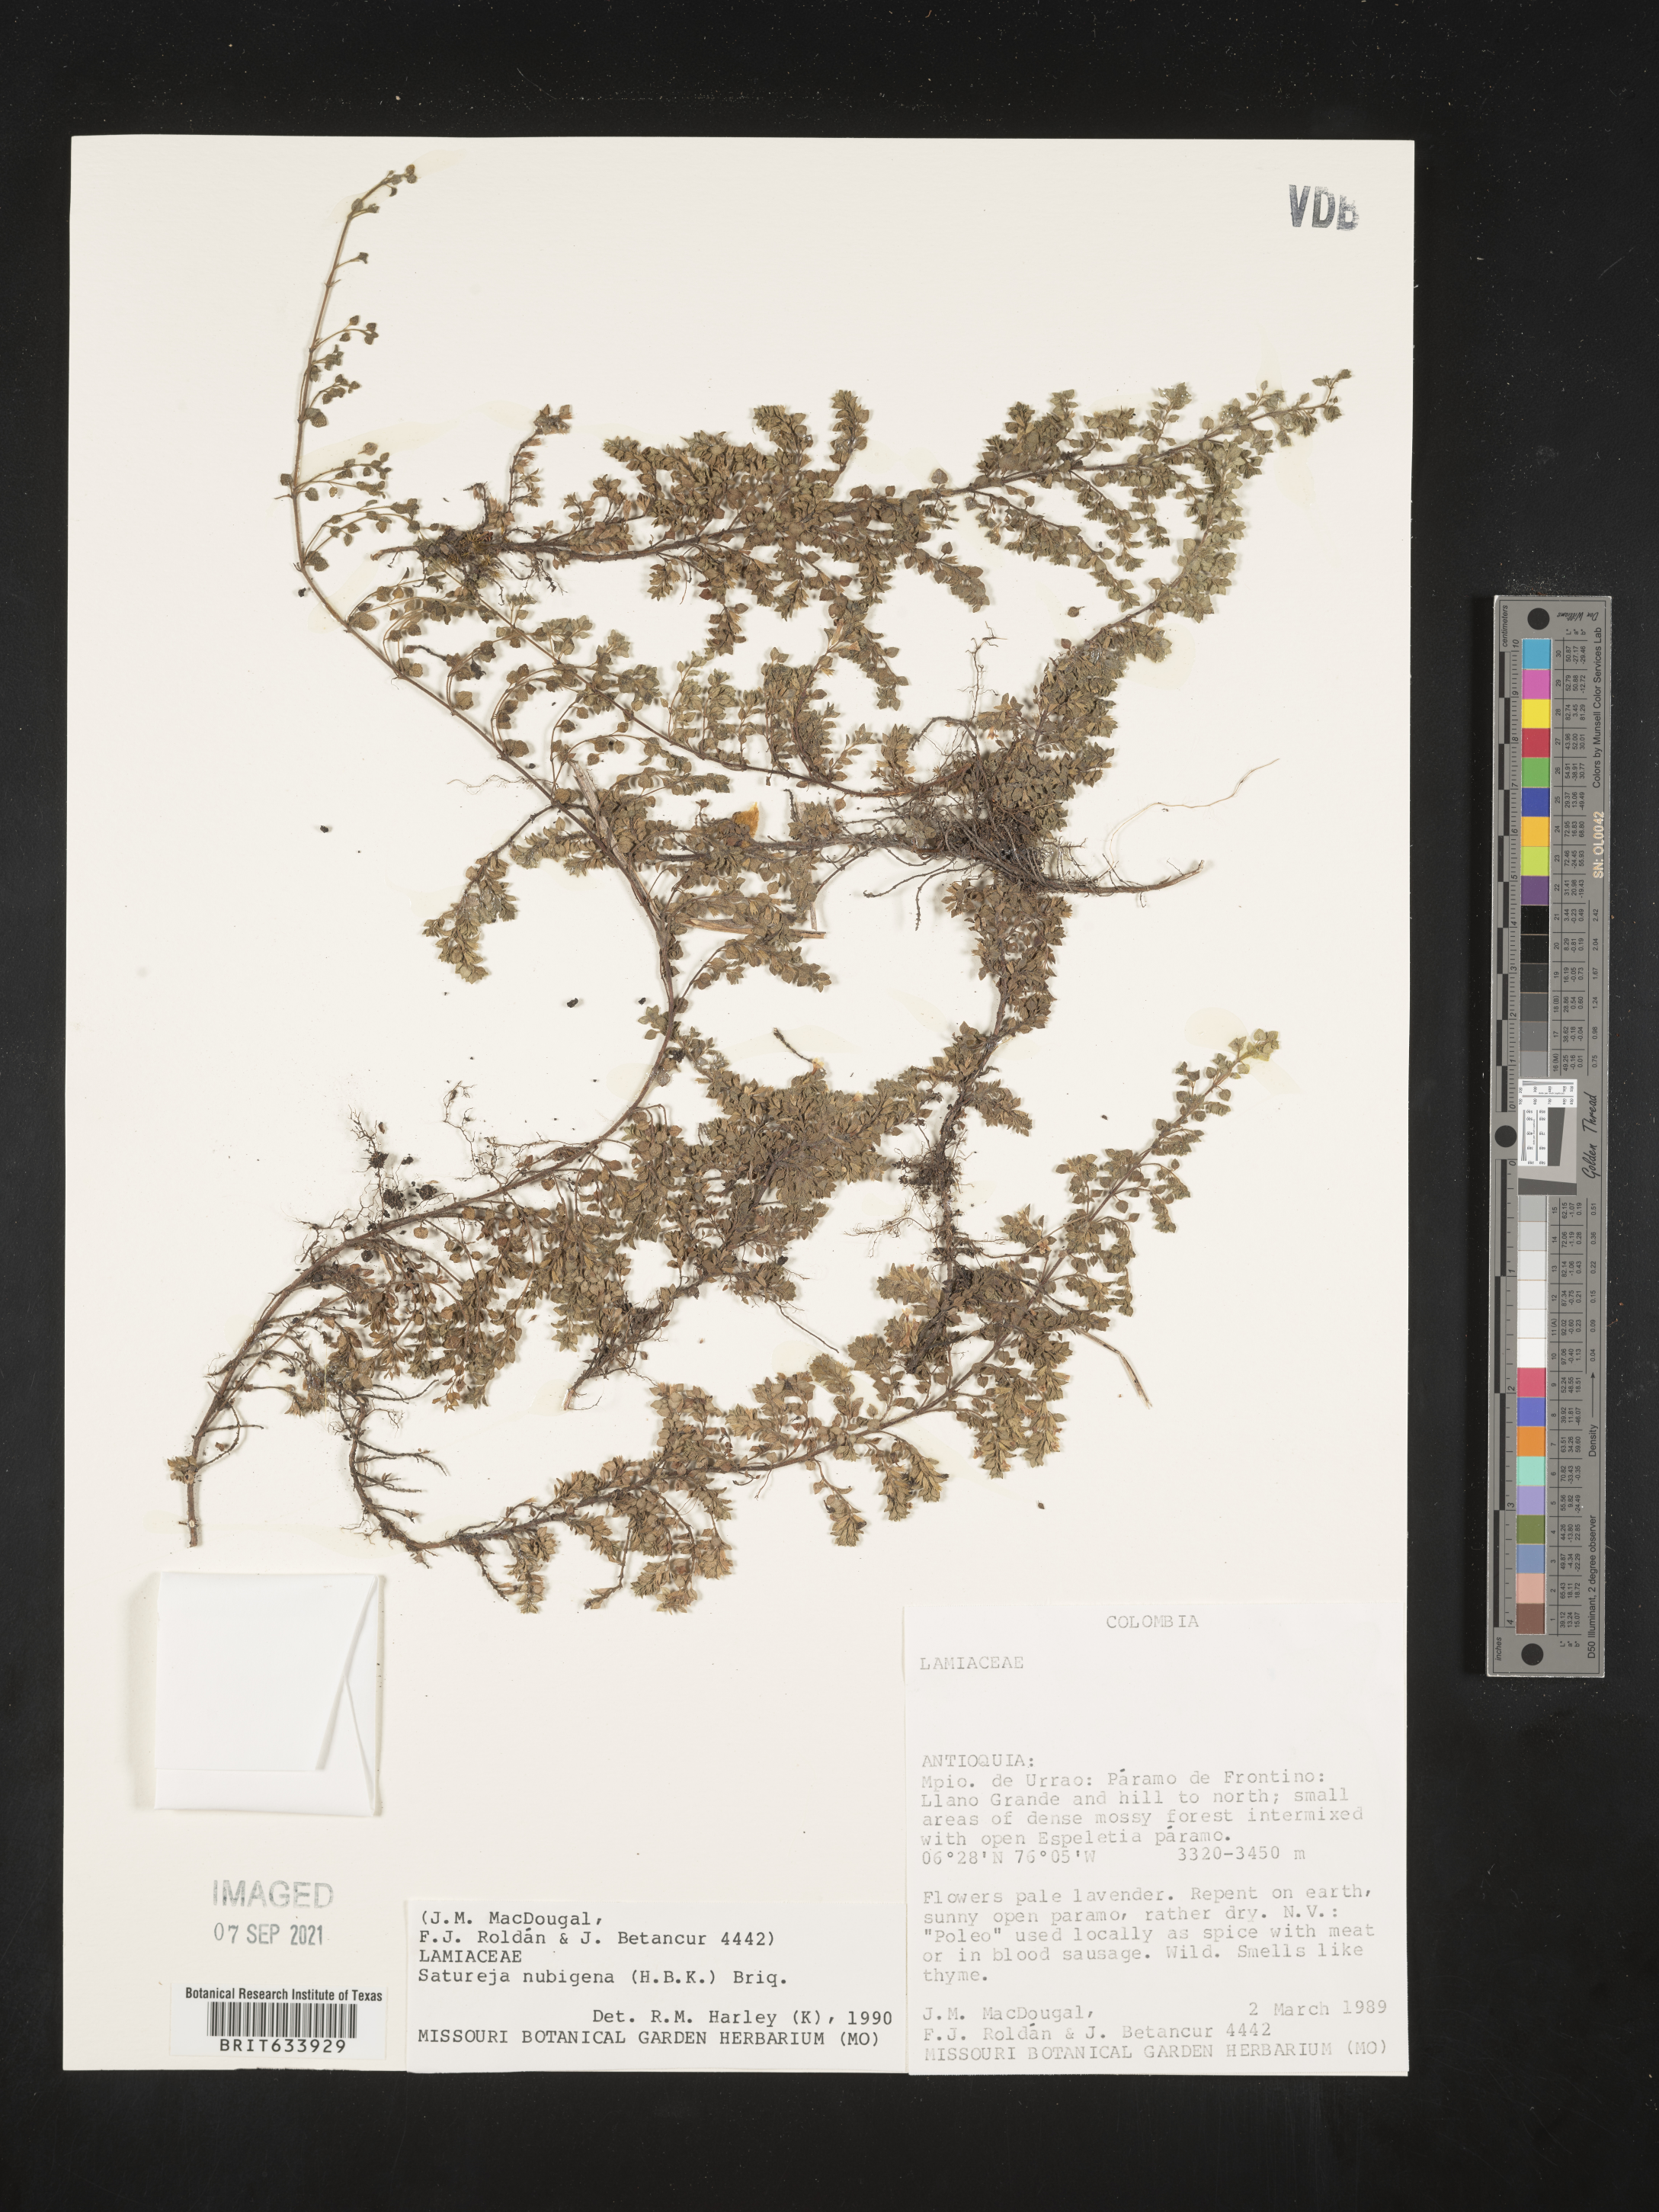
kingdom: Plantae
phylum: Tracheophyta
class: Magnoliopsida
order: Lamiales
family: Lamiaceae
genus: Satureja
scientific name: Satureja
